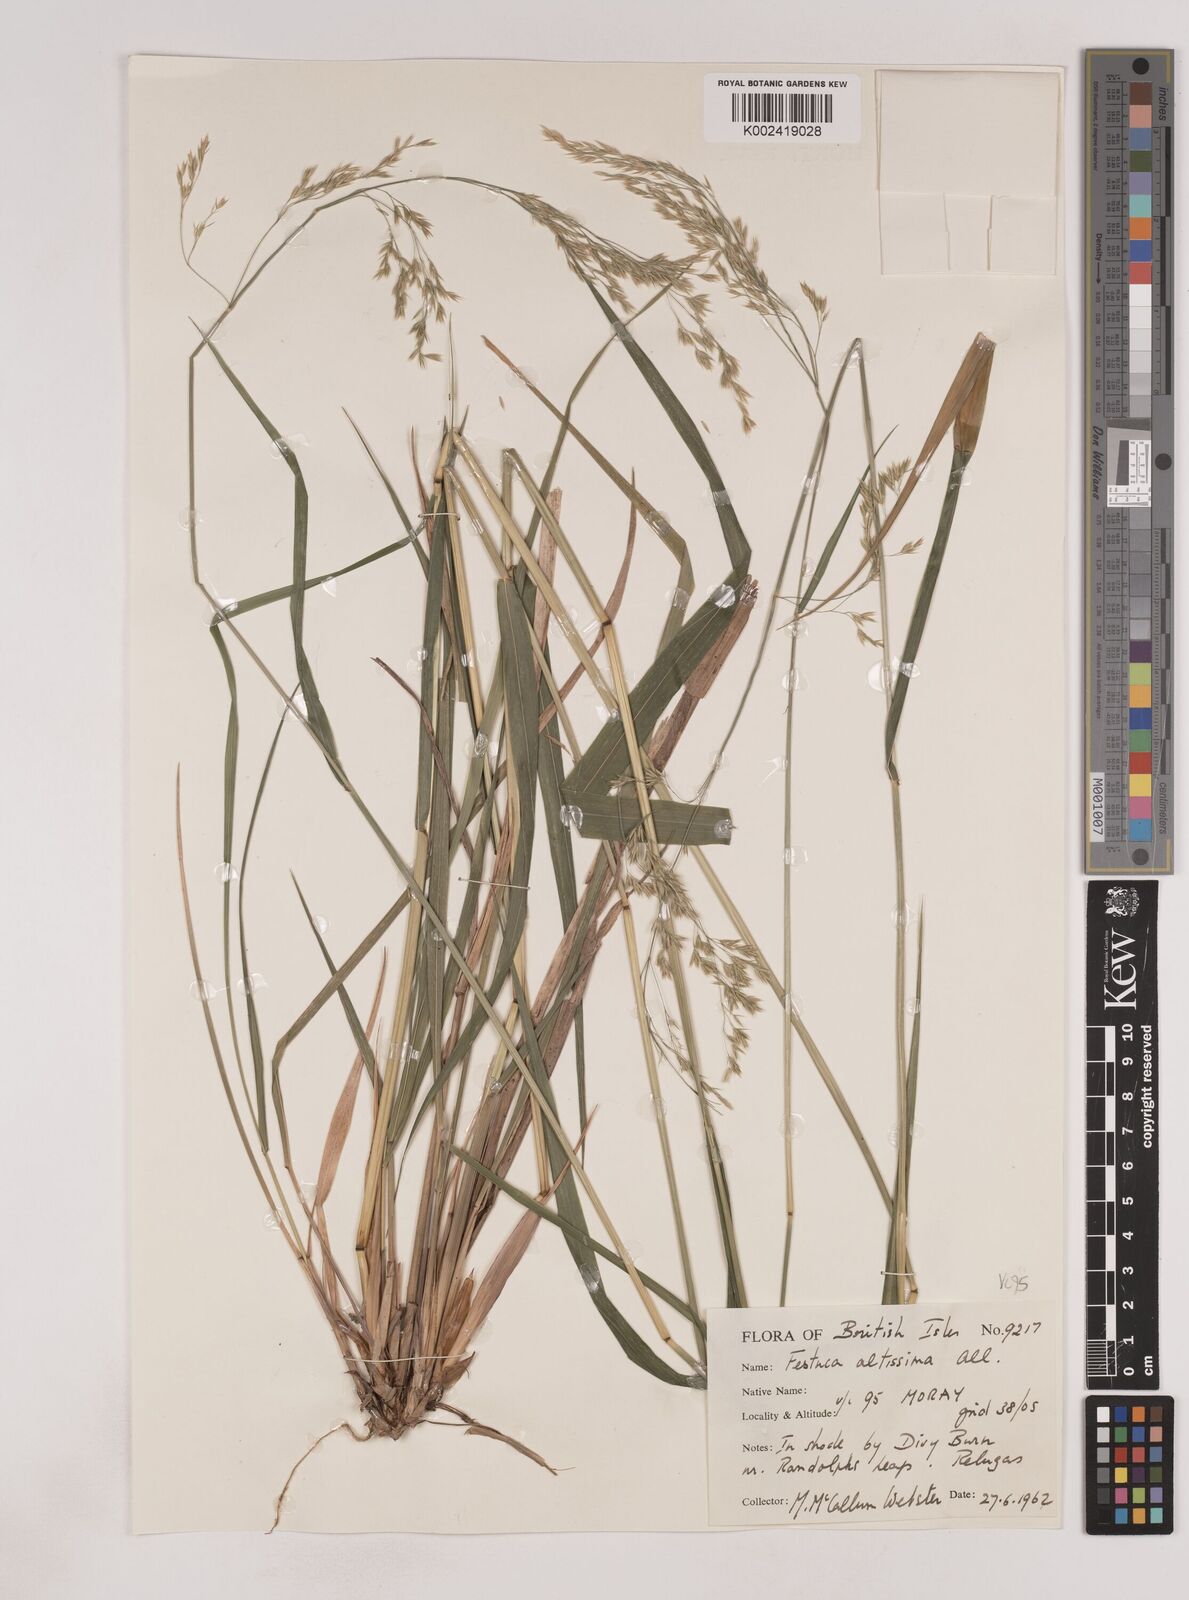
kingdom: Plantae
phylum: Tracheophyta
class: Liliopsida
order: Poales
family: Poaceae
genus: Festuca
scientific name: Festuca drymeja
